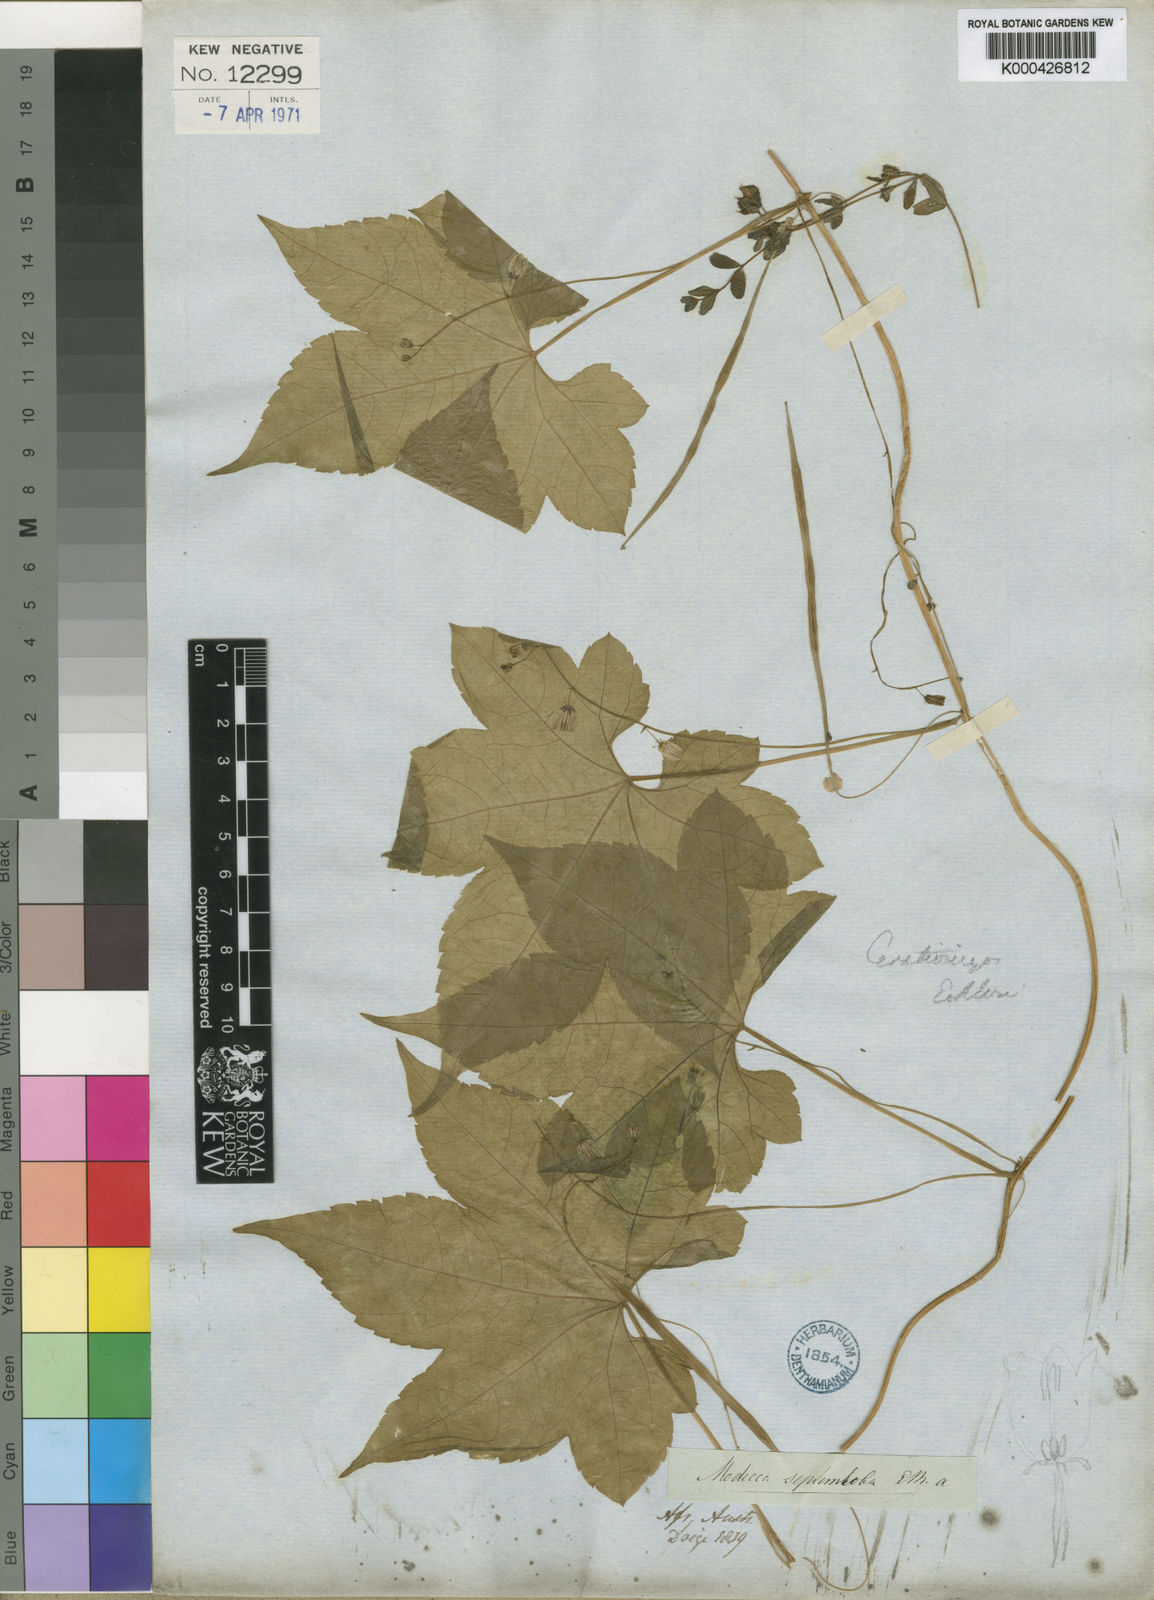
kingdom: Plantae
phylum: Tracheophyta
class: Magnoliopsida
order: Malpighiales
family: Achariaceae
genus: Ceratiosicyos
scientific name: Ceratiosicyos laevis
